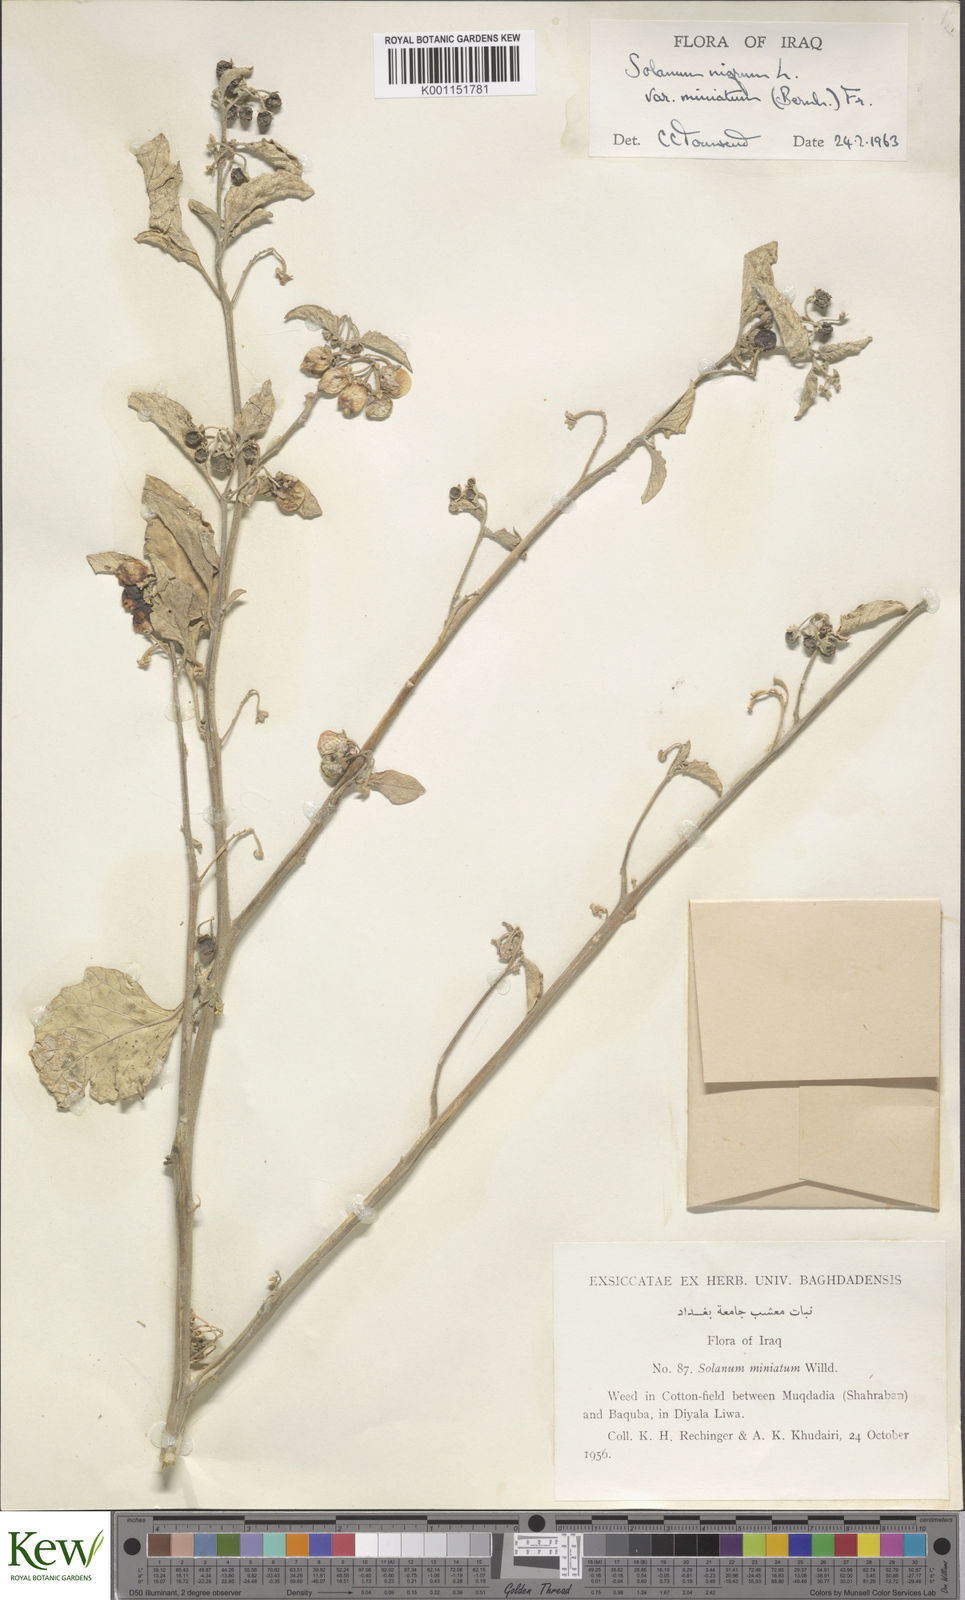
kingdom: Plantae
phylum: Tracheophyta
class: Magnoliopsida
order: Solanales
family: Solanaceae
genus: Solanum
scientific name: Solanum nigrum
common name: Black nightshade
